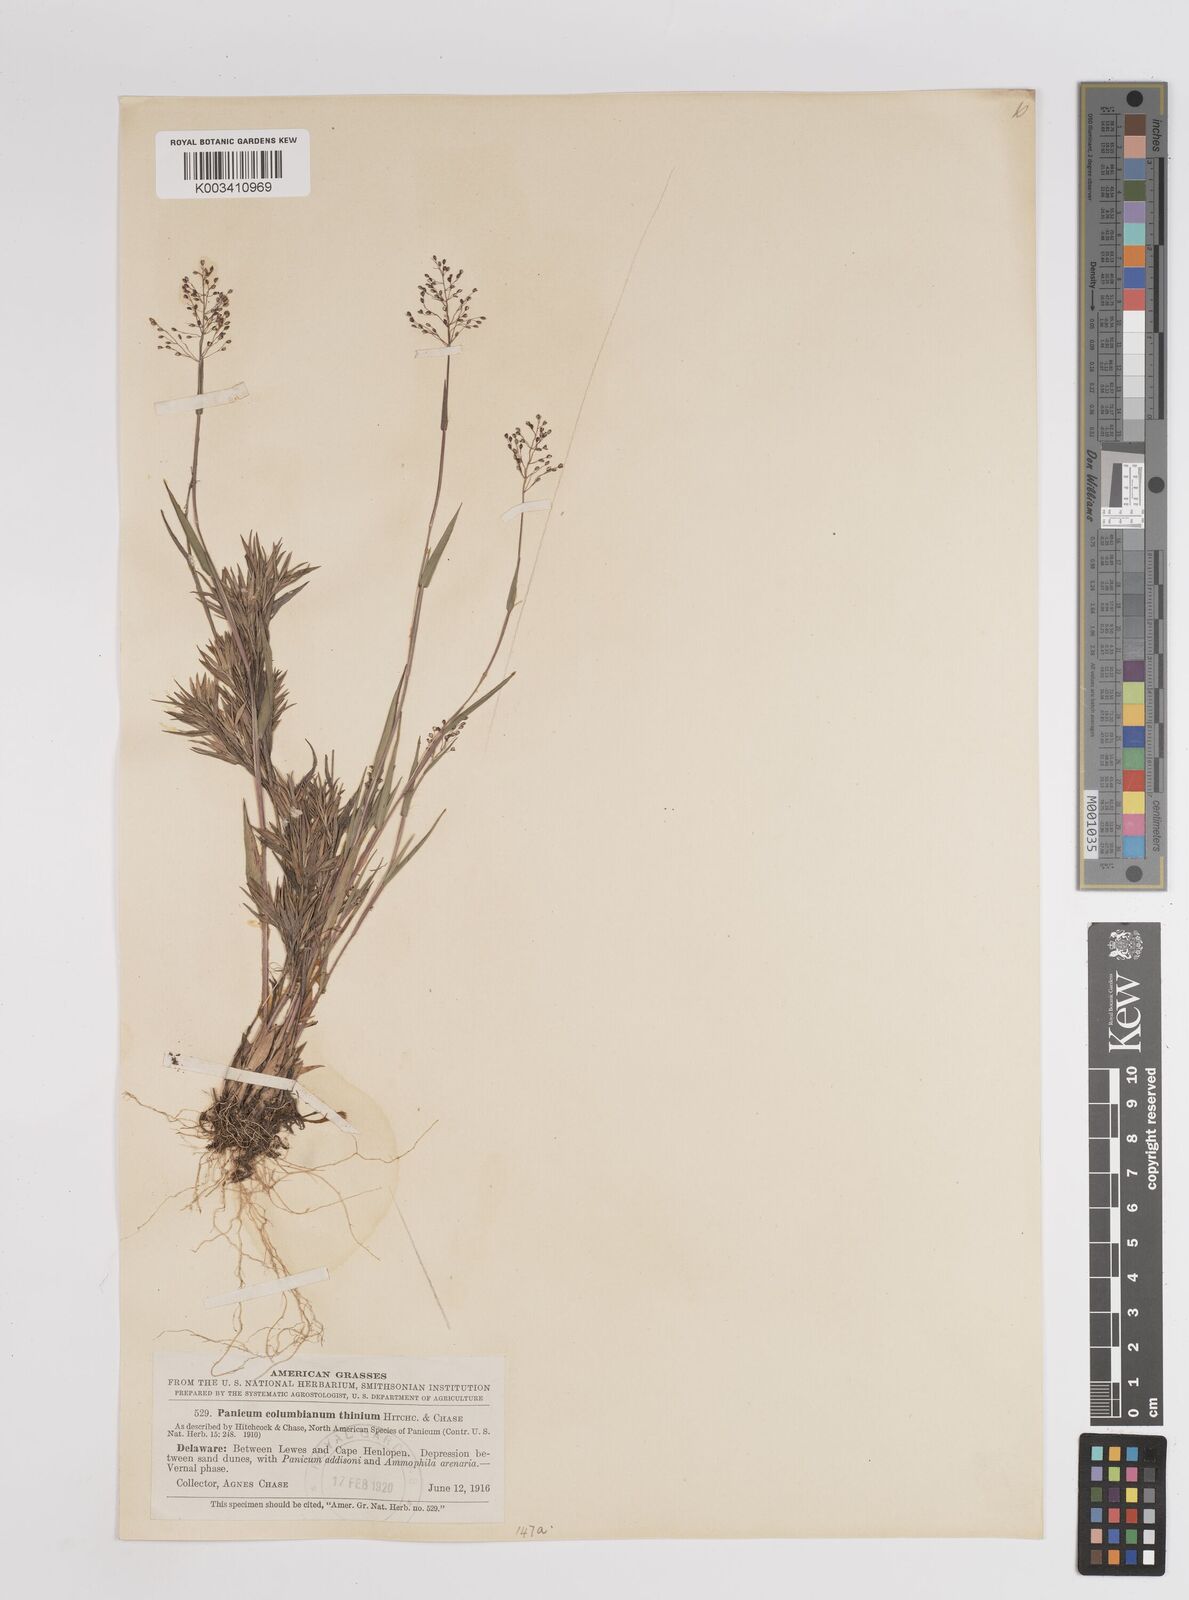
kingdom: Plantae
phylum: Tracheophyta
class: Liliopsida
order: Poales
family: Poaceae
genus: Dichanthelium
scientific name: Dichanthelium columbianum
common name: Hemlock panic grass
